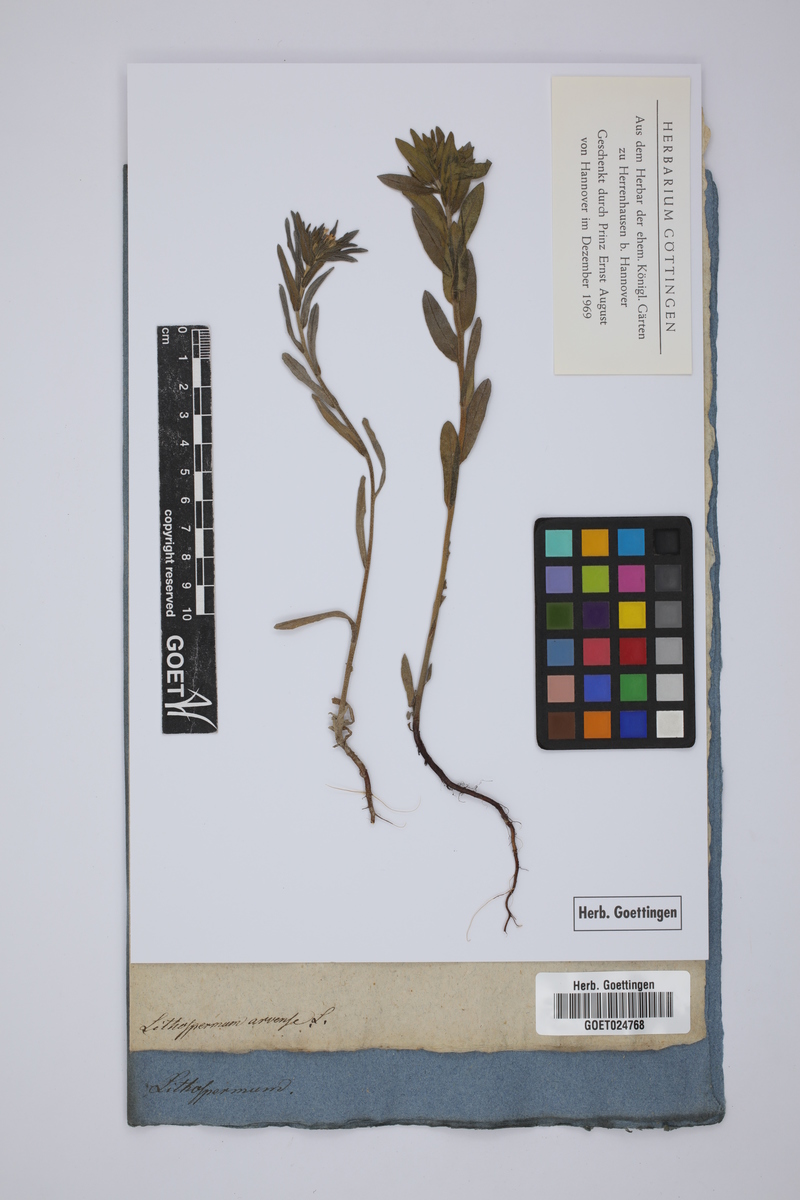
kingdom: Plantae
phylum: Tracheophyta
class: Magnoliopsida
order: Boraginales
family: Boraginaceae
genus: Buglossoides
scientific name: Buglossoides arvensis
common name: Corn gromwell
